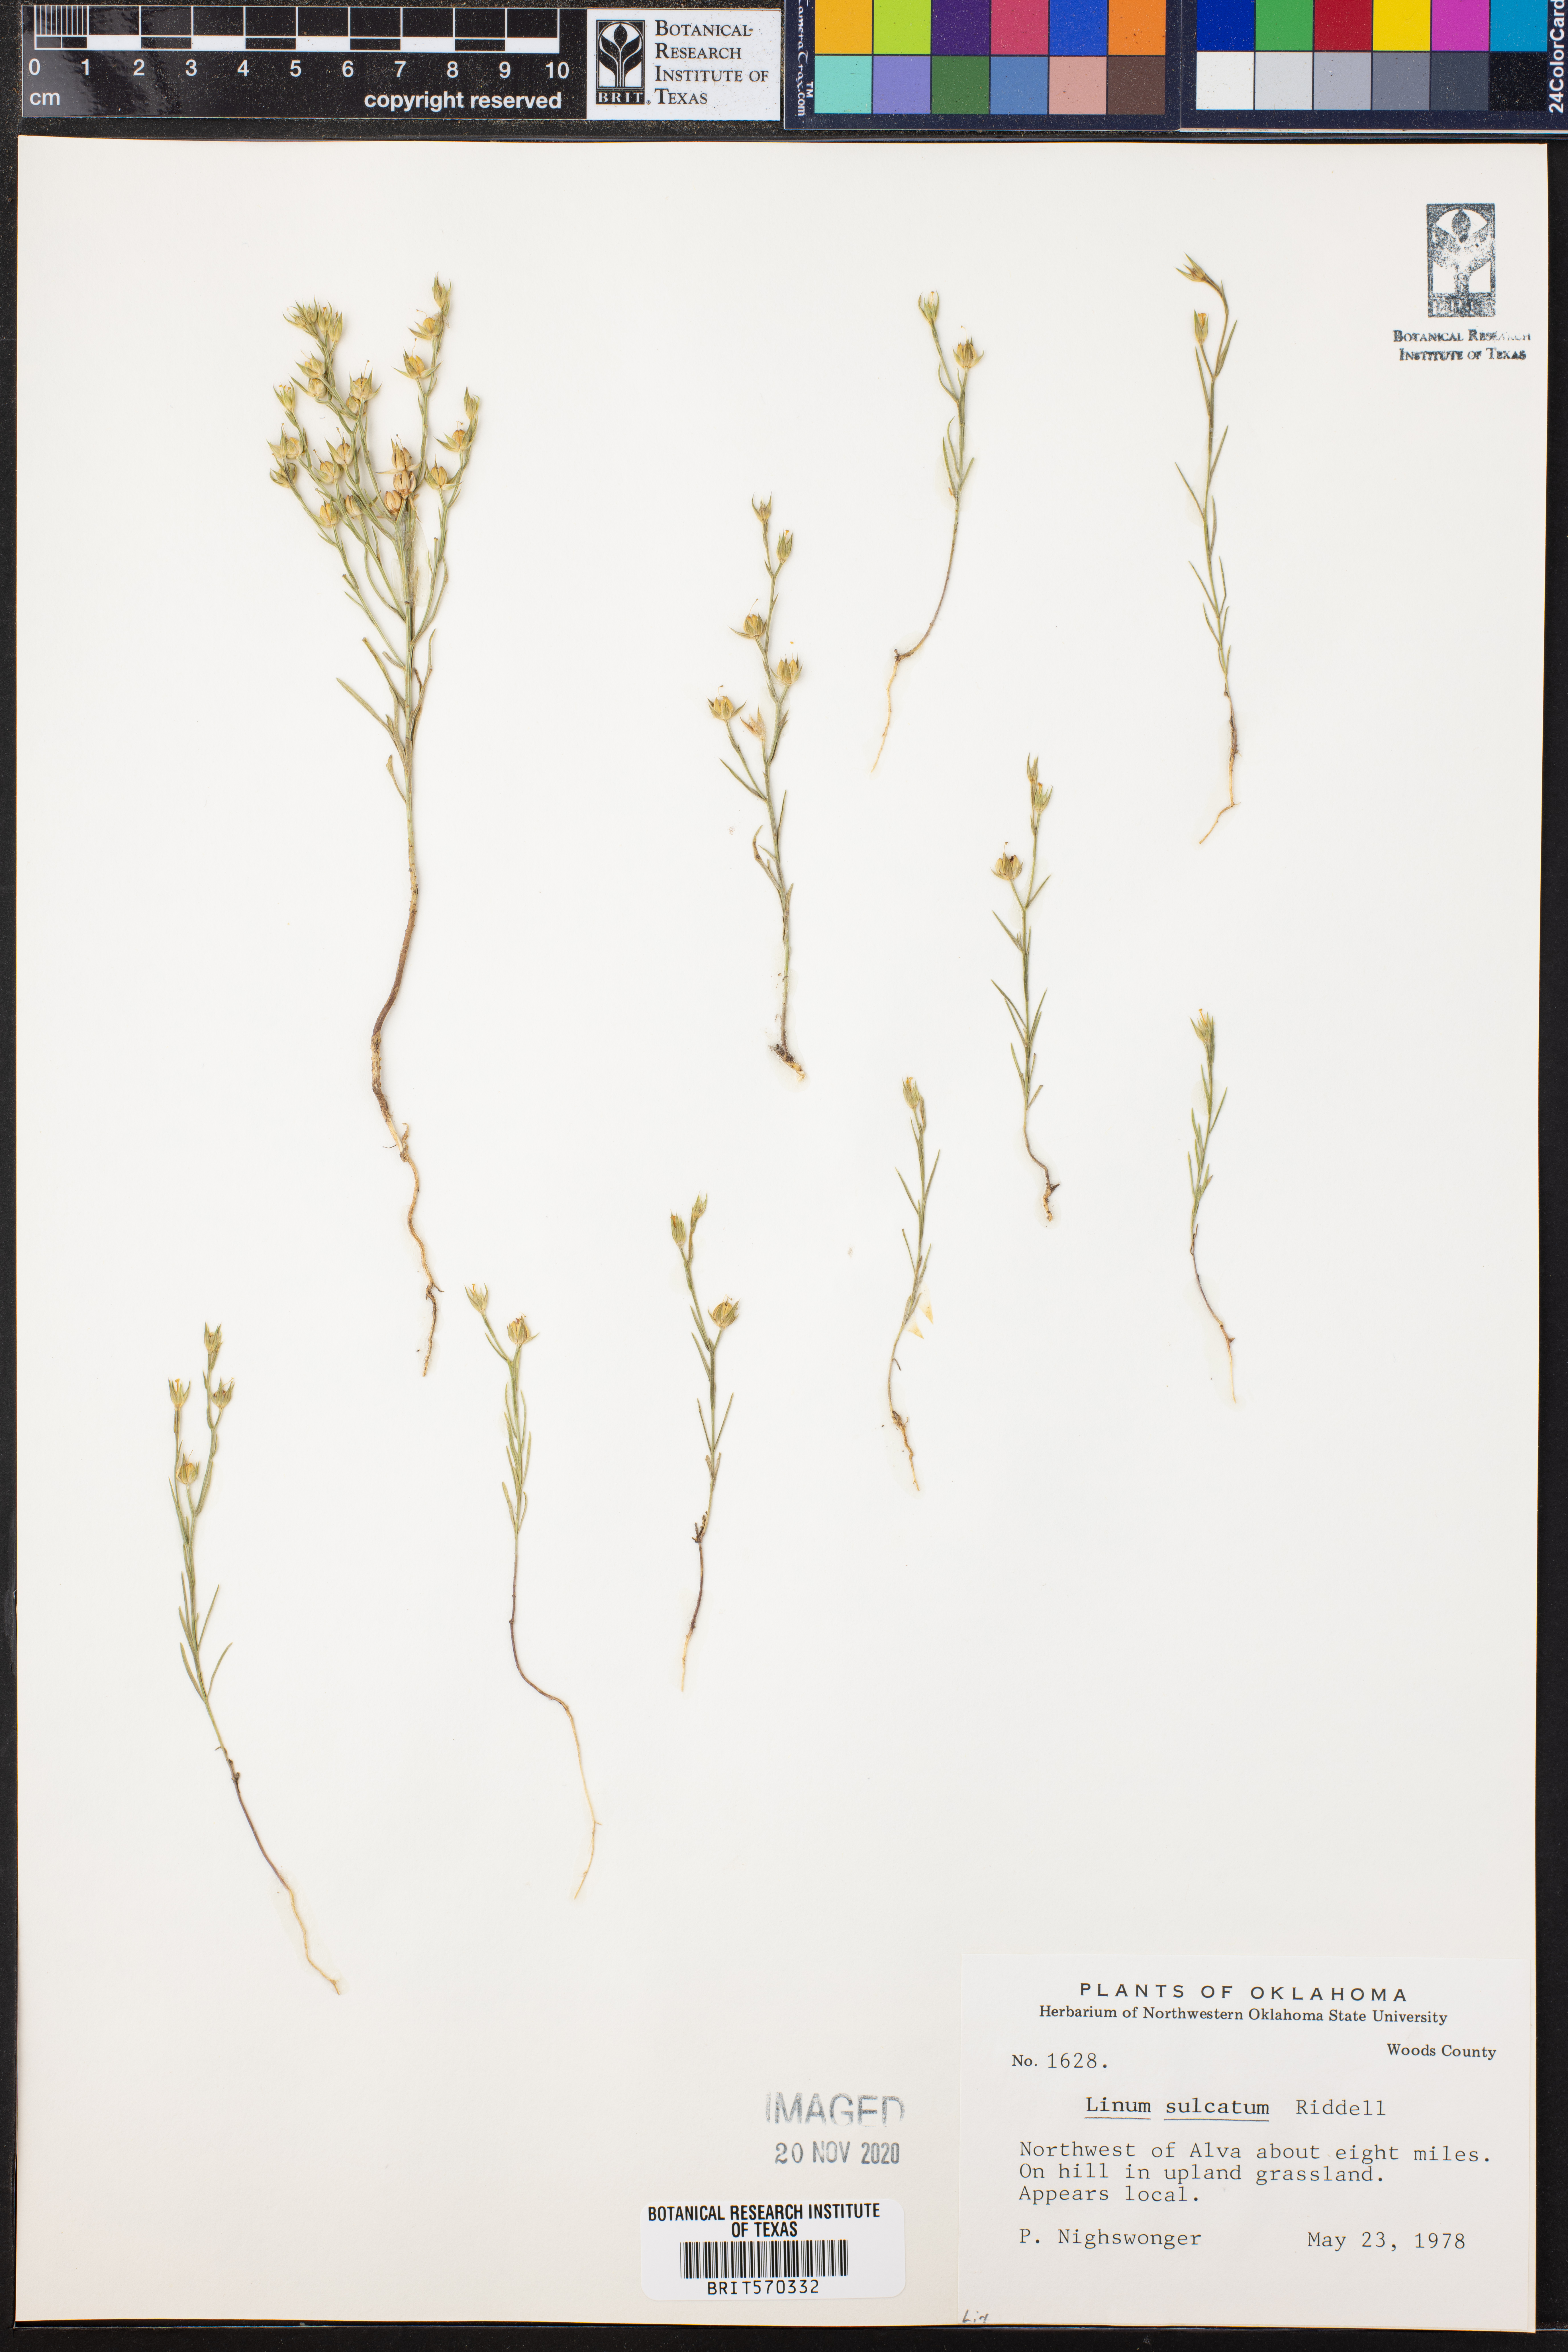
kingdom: Plantae
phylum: Tracheophyta
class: Magnoliopsida
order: Malpighiales
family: Linaceae
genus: Linum
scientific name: Linum sulcatum
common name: Grooved flax
